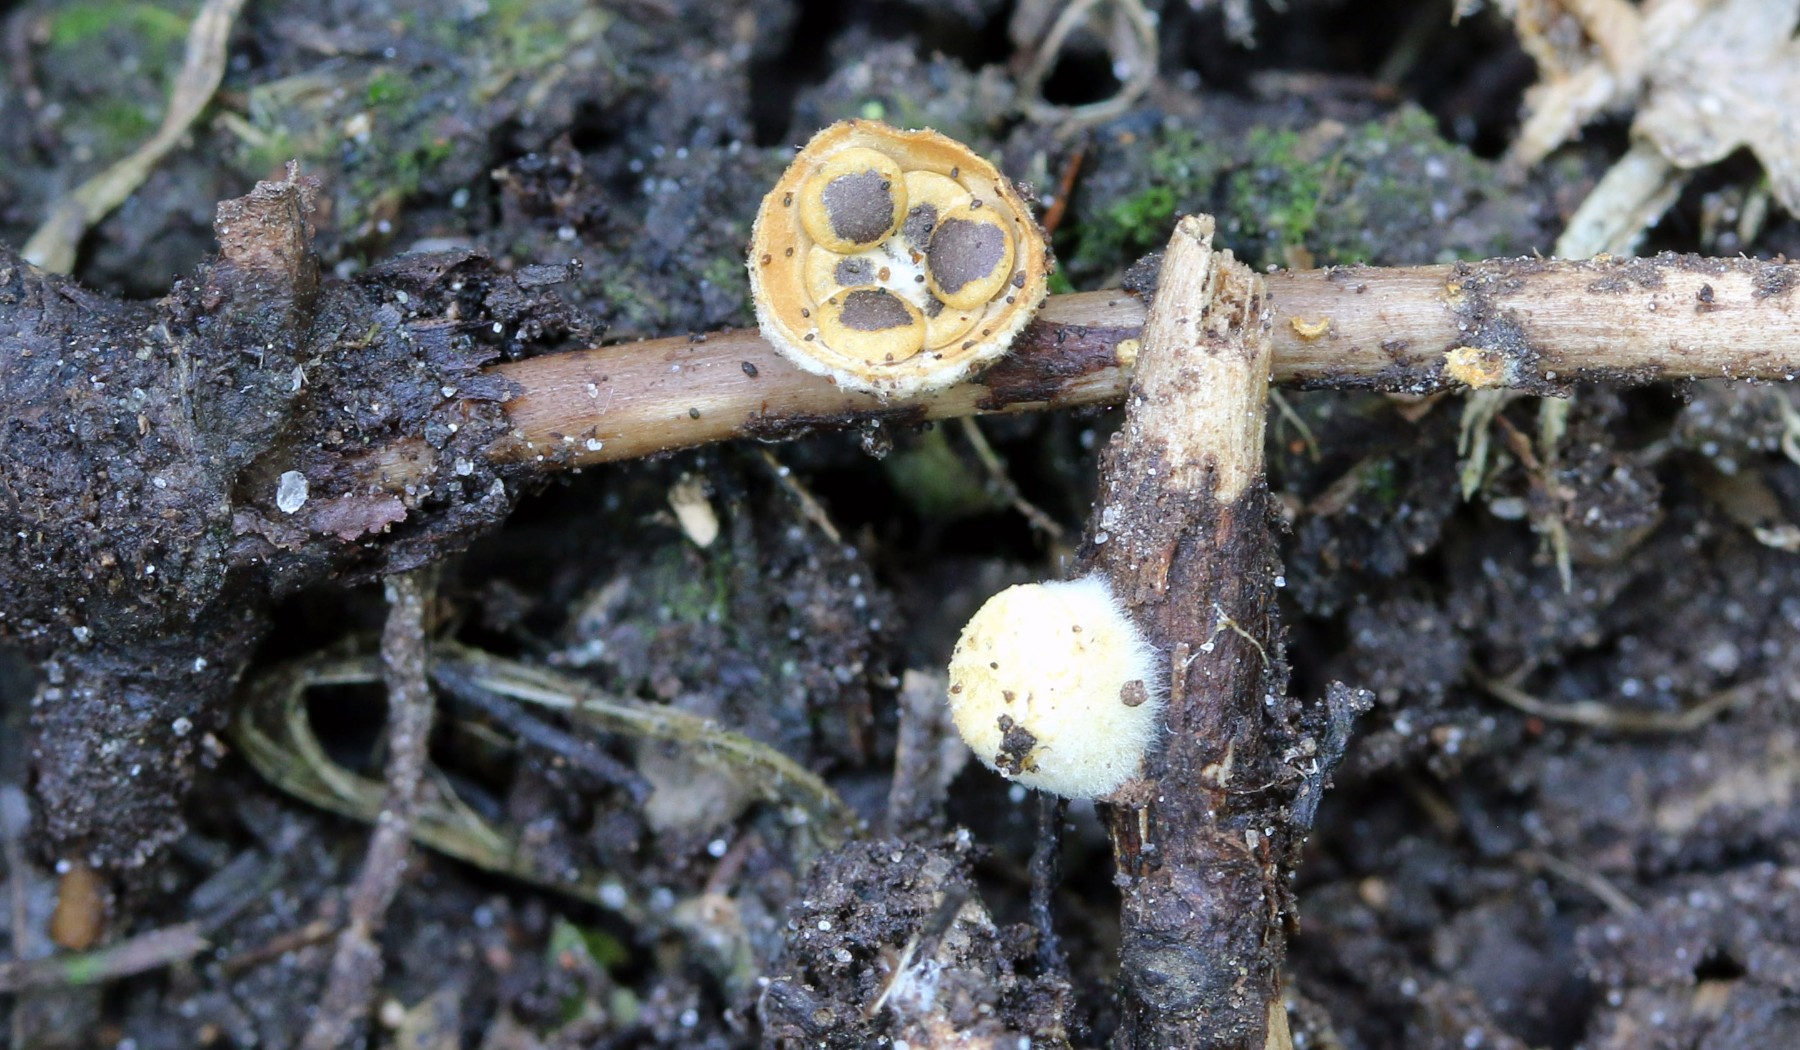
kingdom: Fungi
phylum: Basidiomycota
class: Agaricomycetes
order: Agaricales
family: Nidulariaceae
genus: Crucibulum
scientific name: Crucibulum crucibuliforme
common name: krukkesvamp
